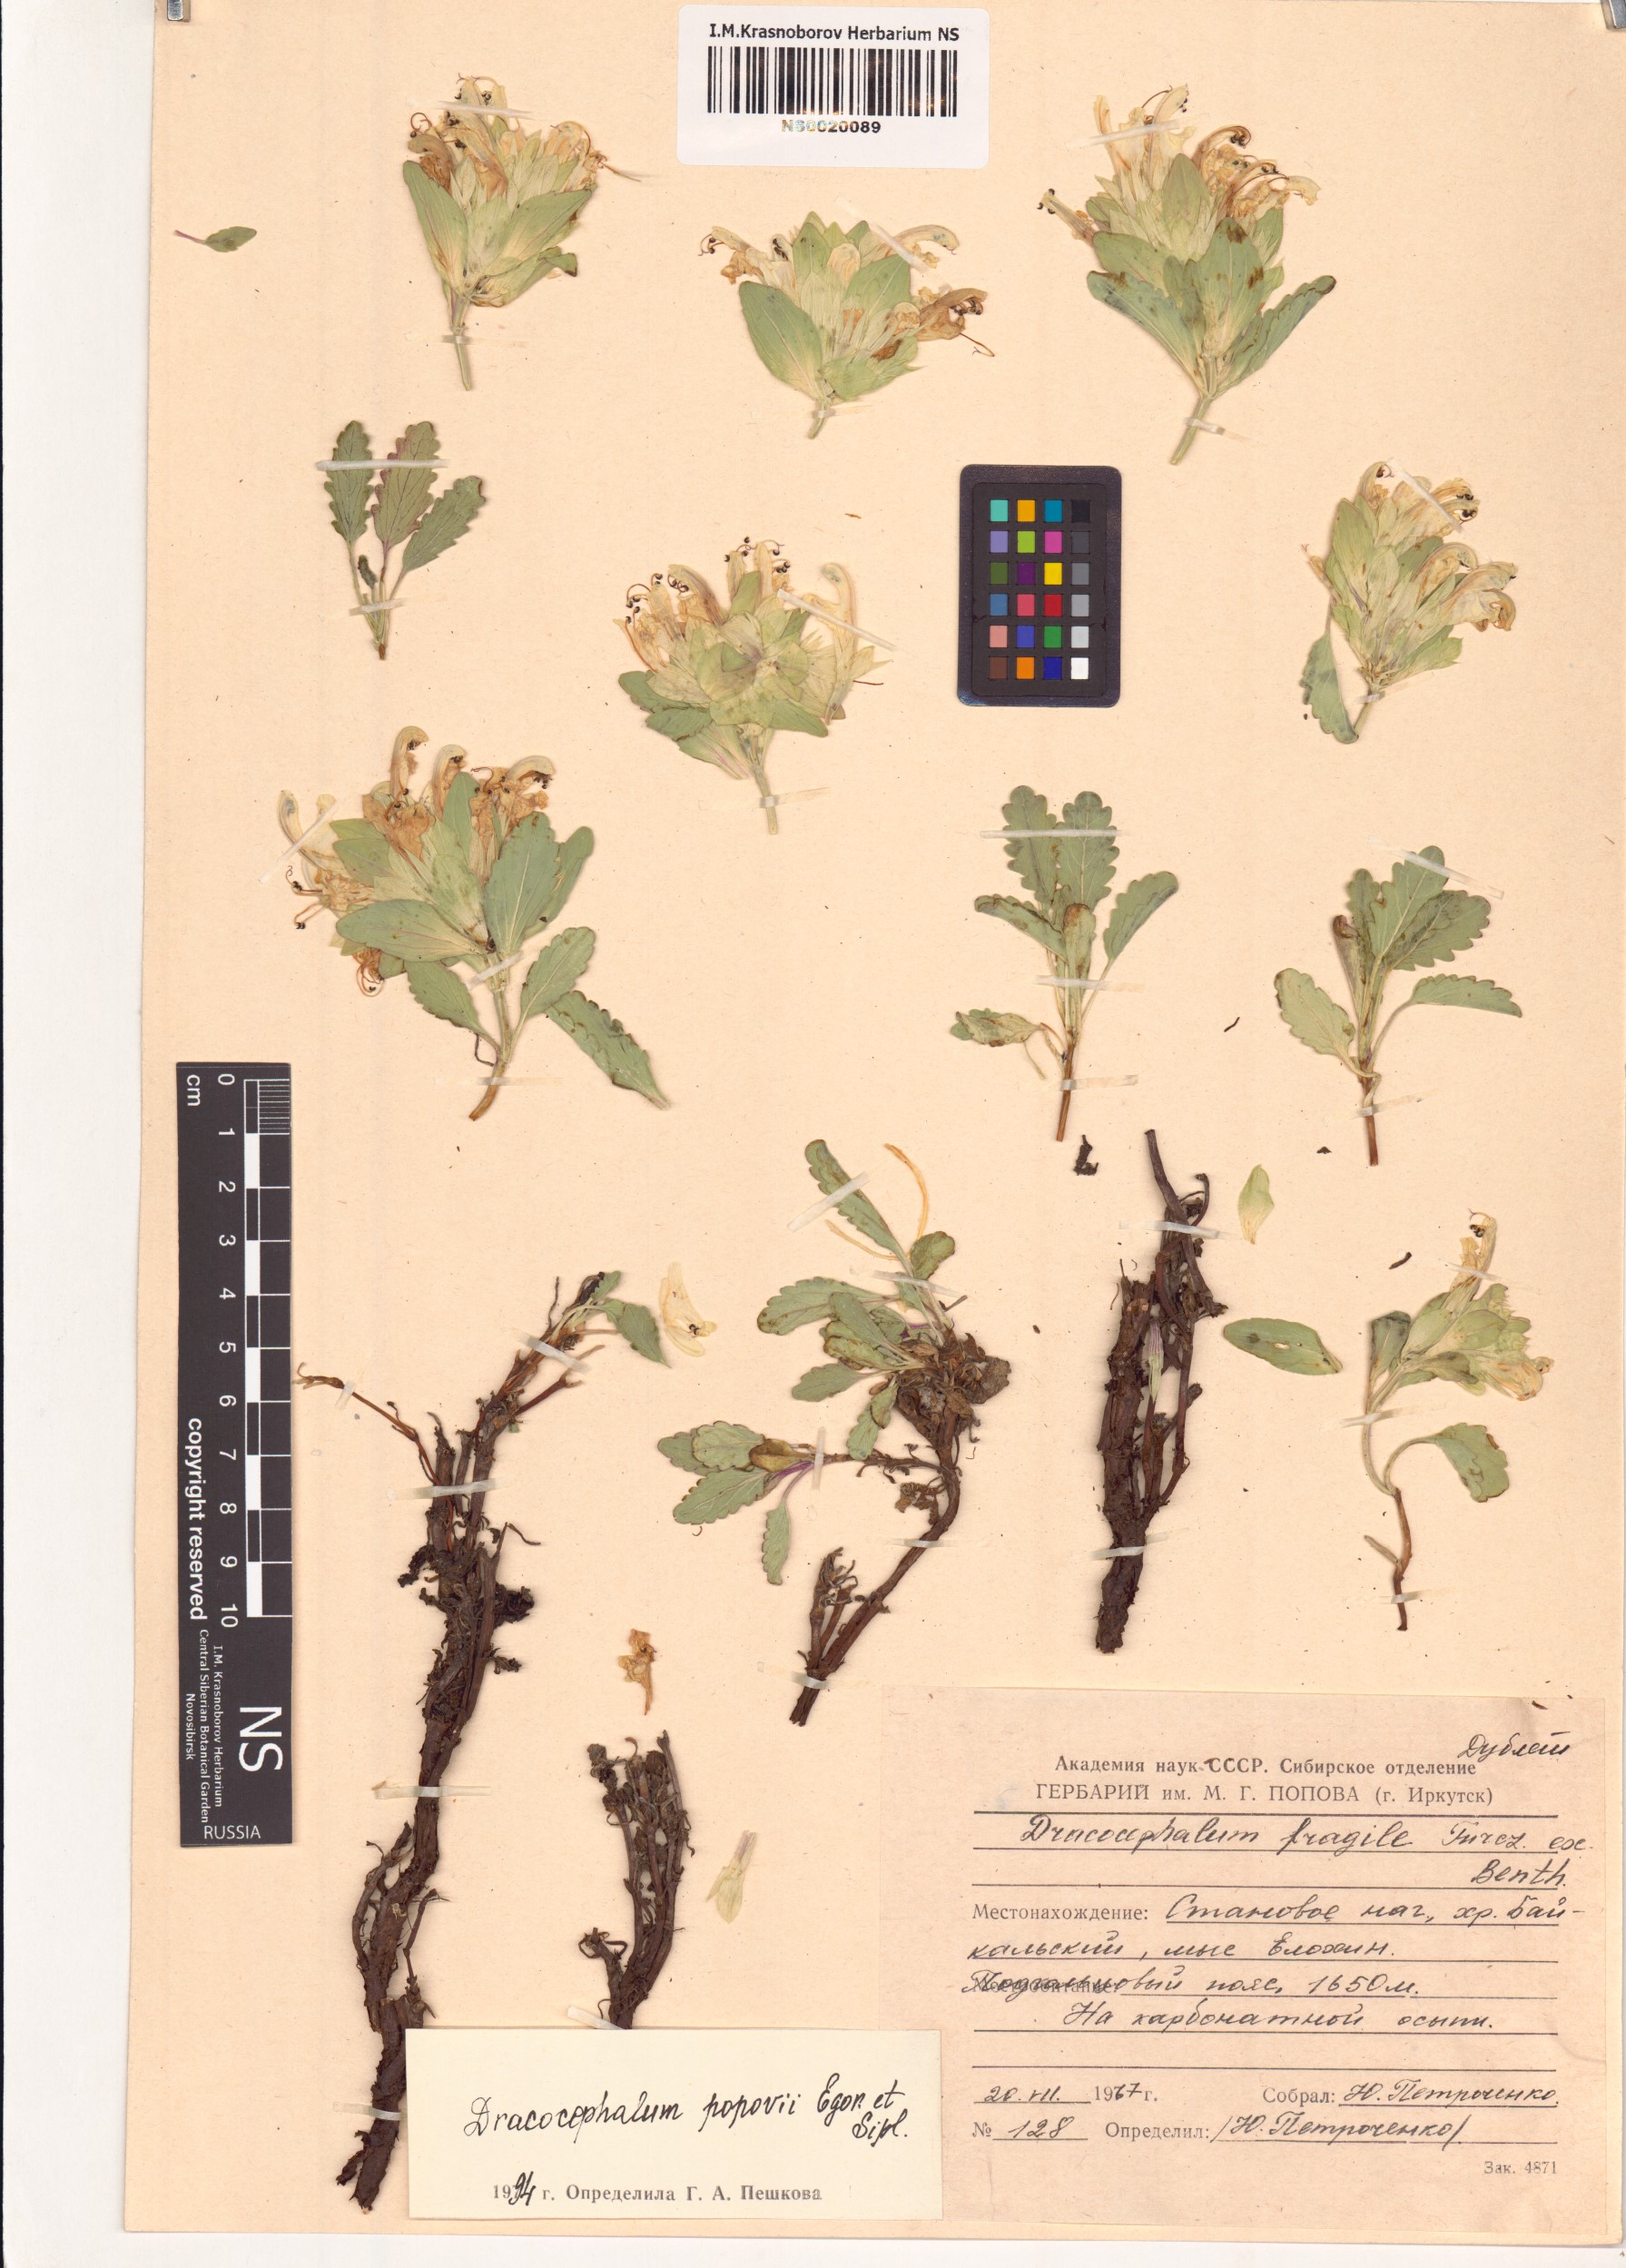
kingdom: Plantae
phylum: Tracheophyta
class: Magnoliopsida
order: Lamiales
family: Lamiaceae
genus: Dracocephalum
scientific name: Dracocephalum popovii
